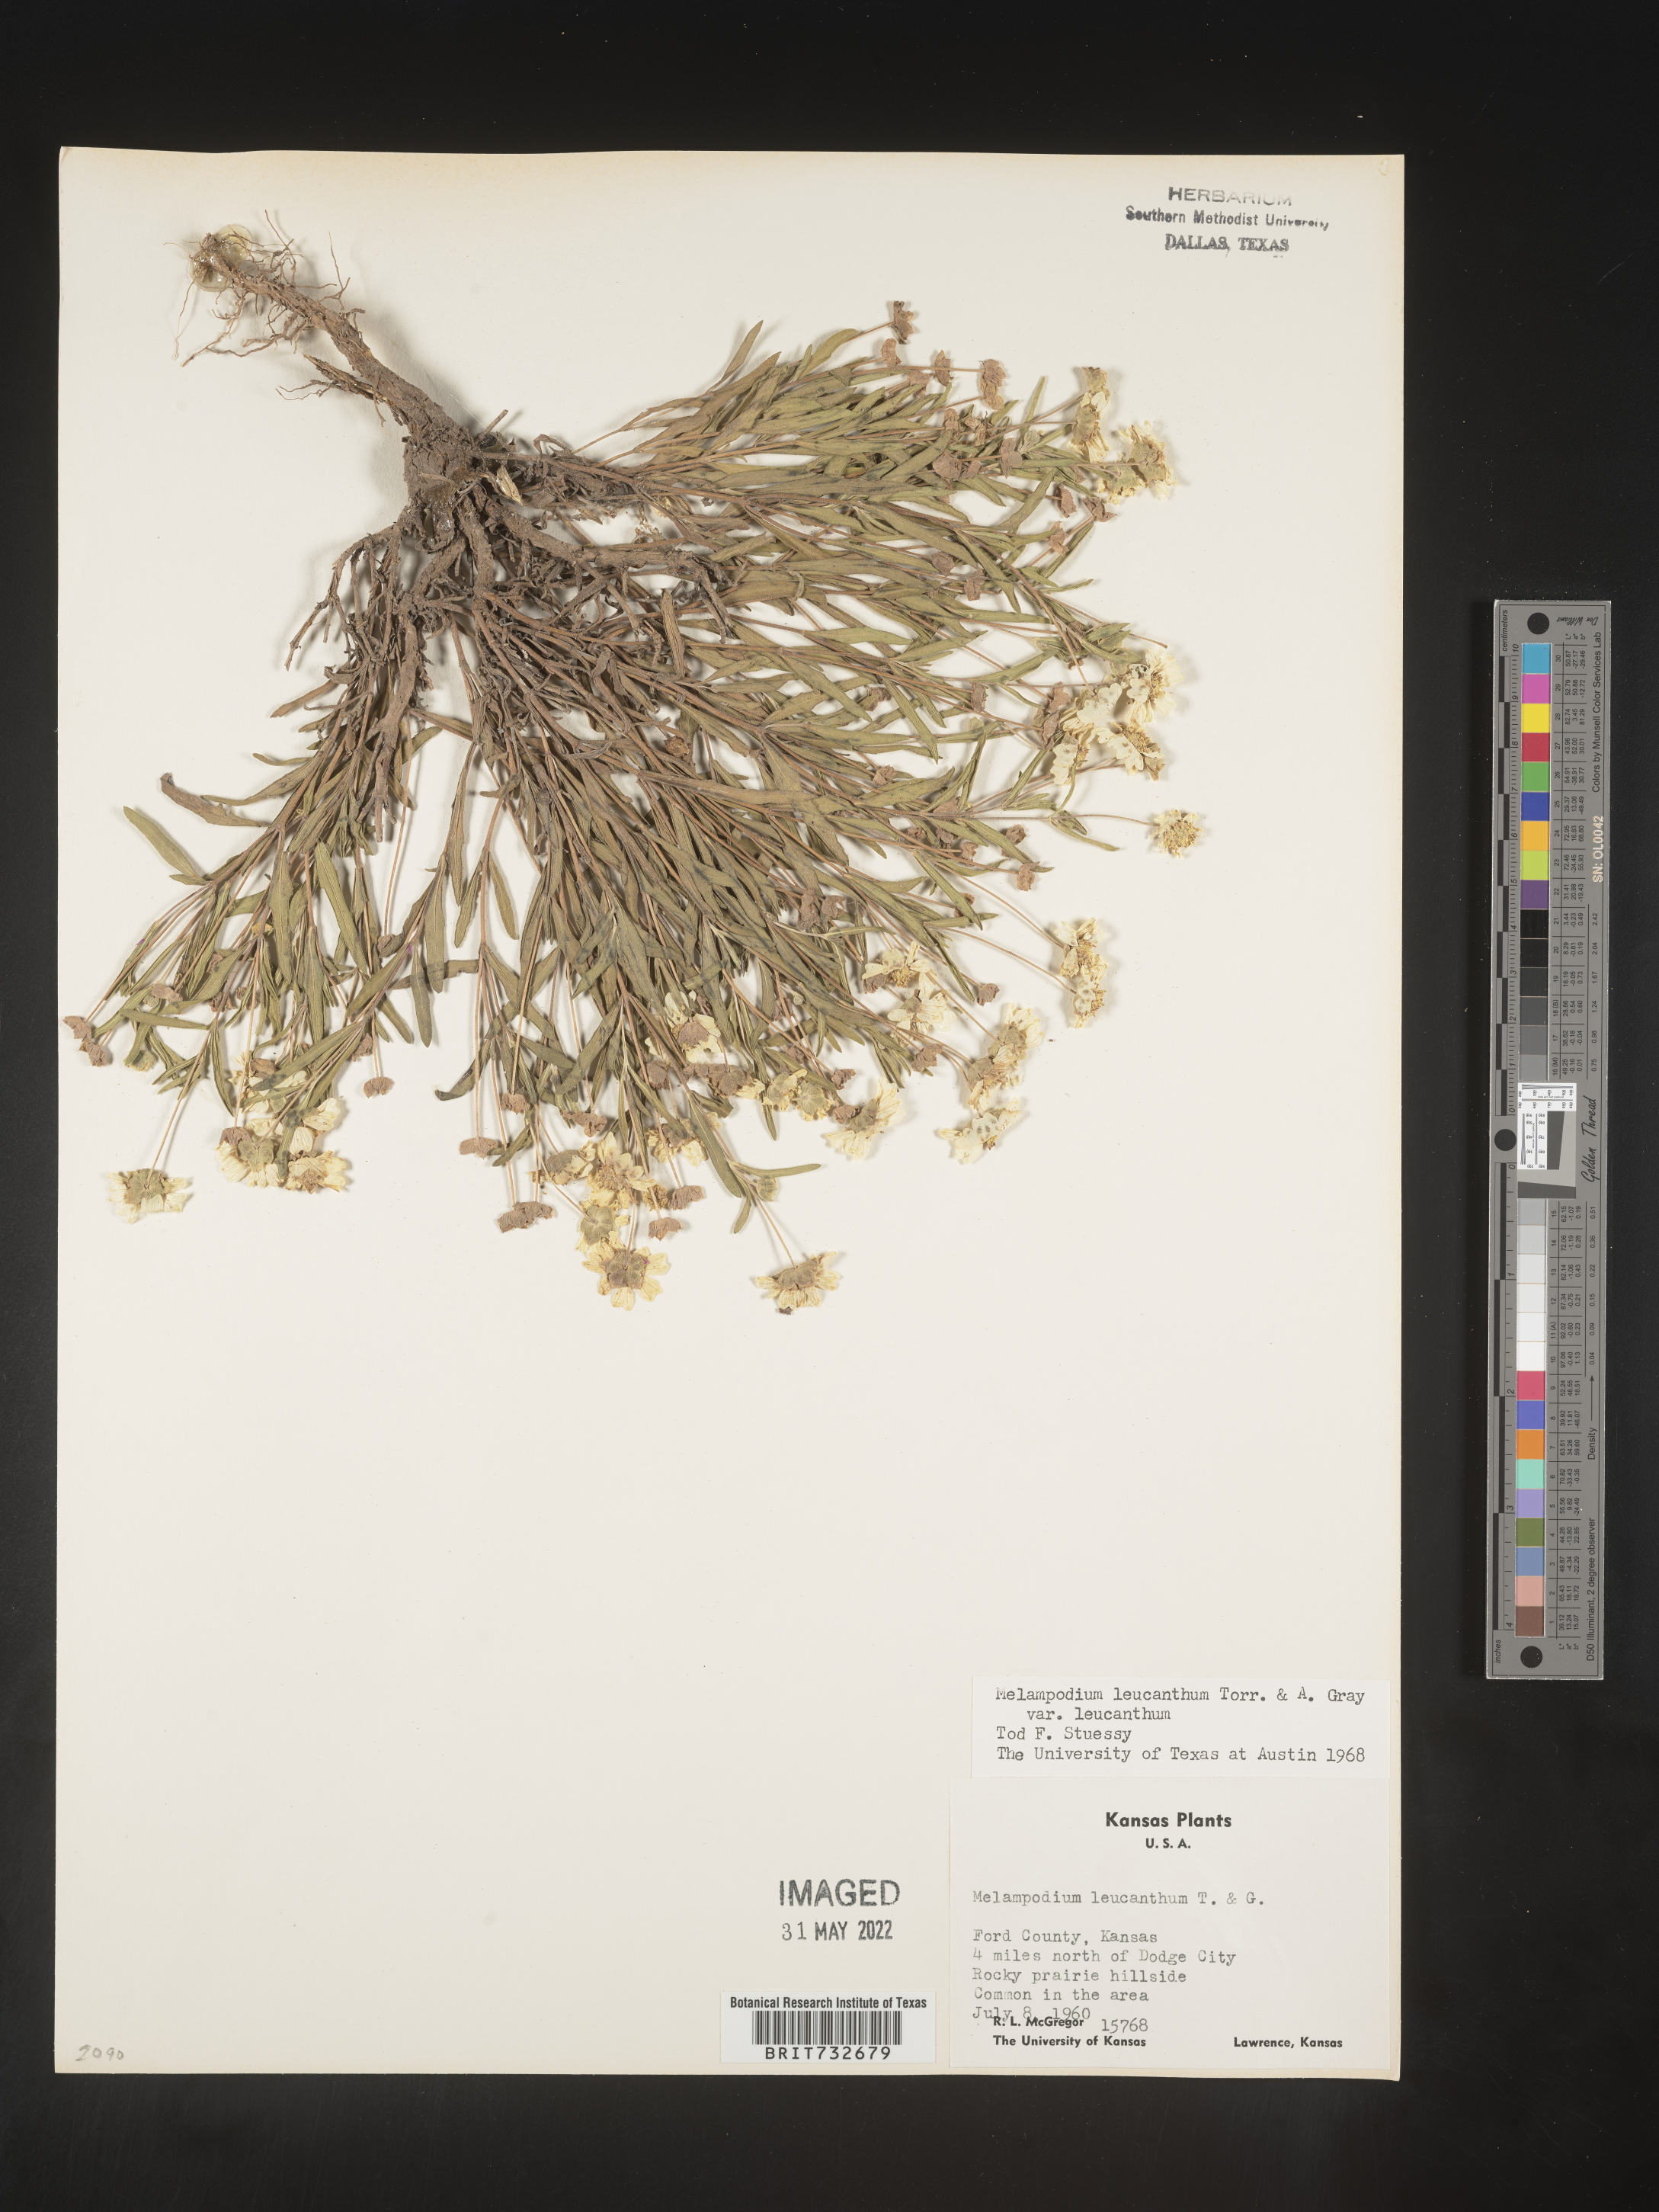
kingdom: Plantae
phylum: Tracheophyta
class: Magnoliopsida
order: Asterales
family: Asteraceae
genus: Melampodium
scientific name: Melampodium leucanthum
